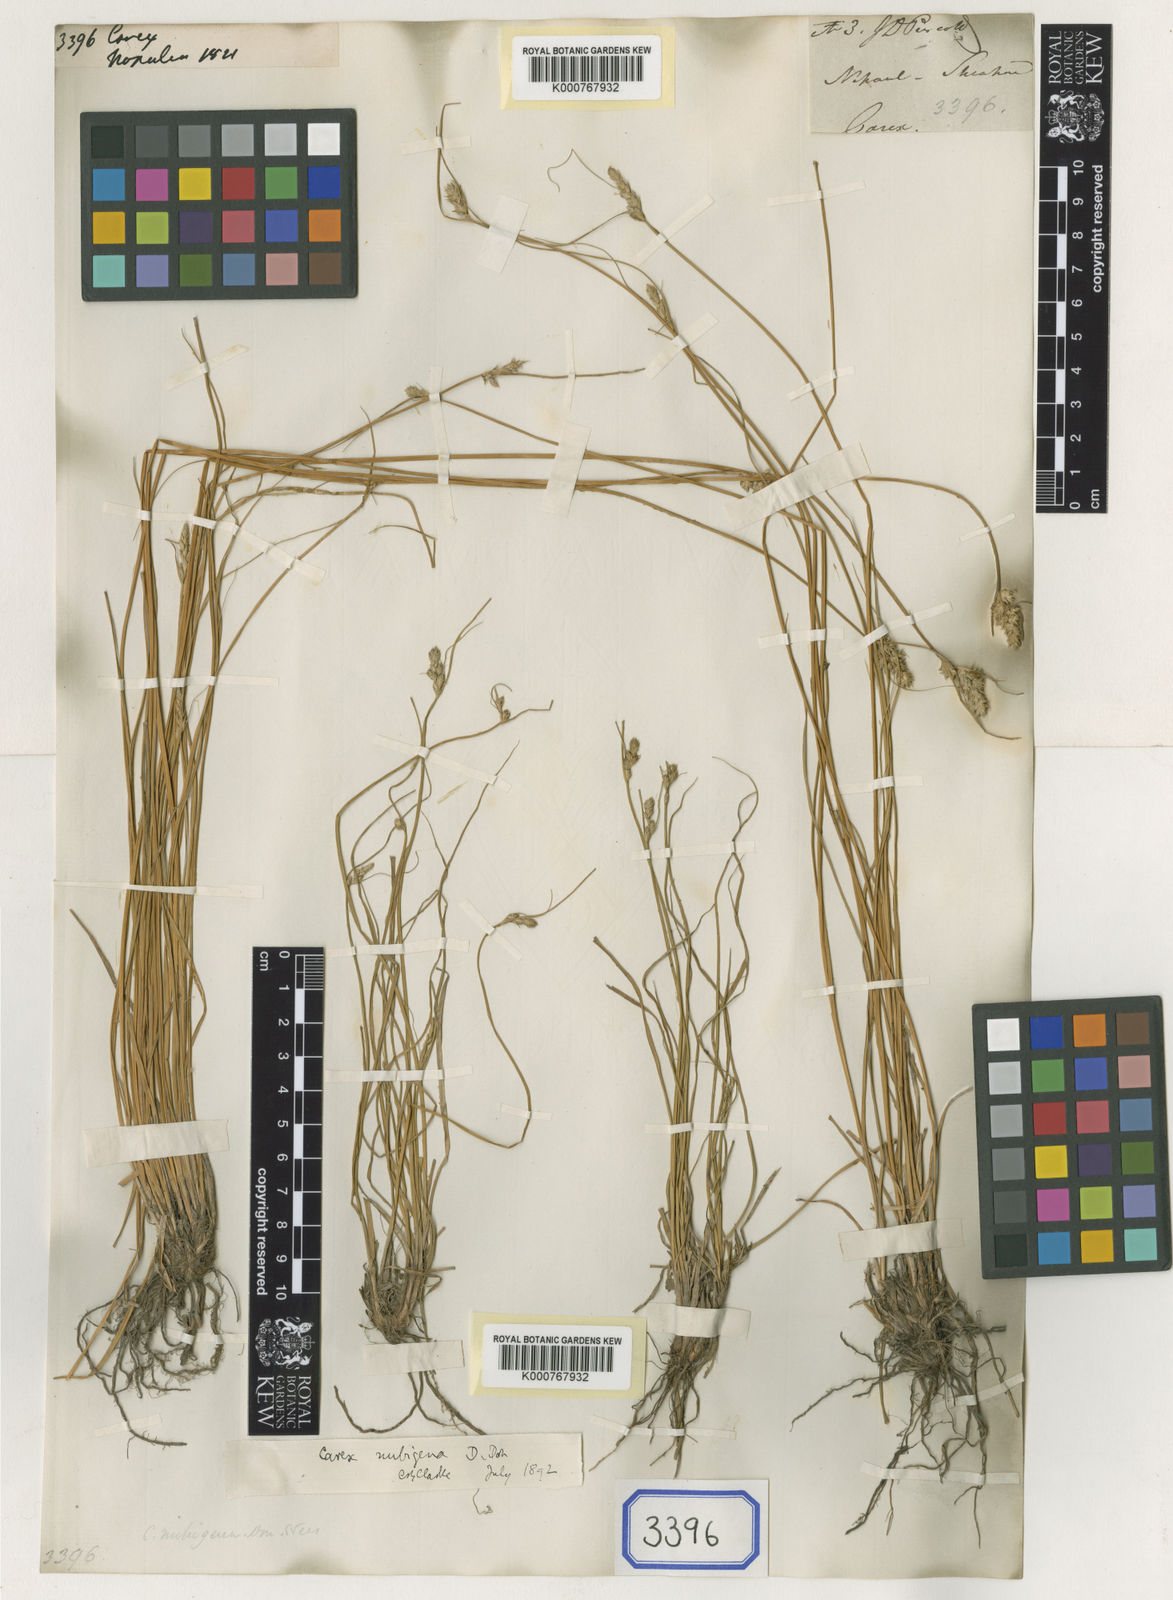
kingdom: Plantae
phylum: Tracheophyta
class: Liliopsida
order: Poales
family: Cyperaceae
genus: Carex
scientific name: Carex
